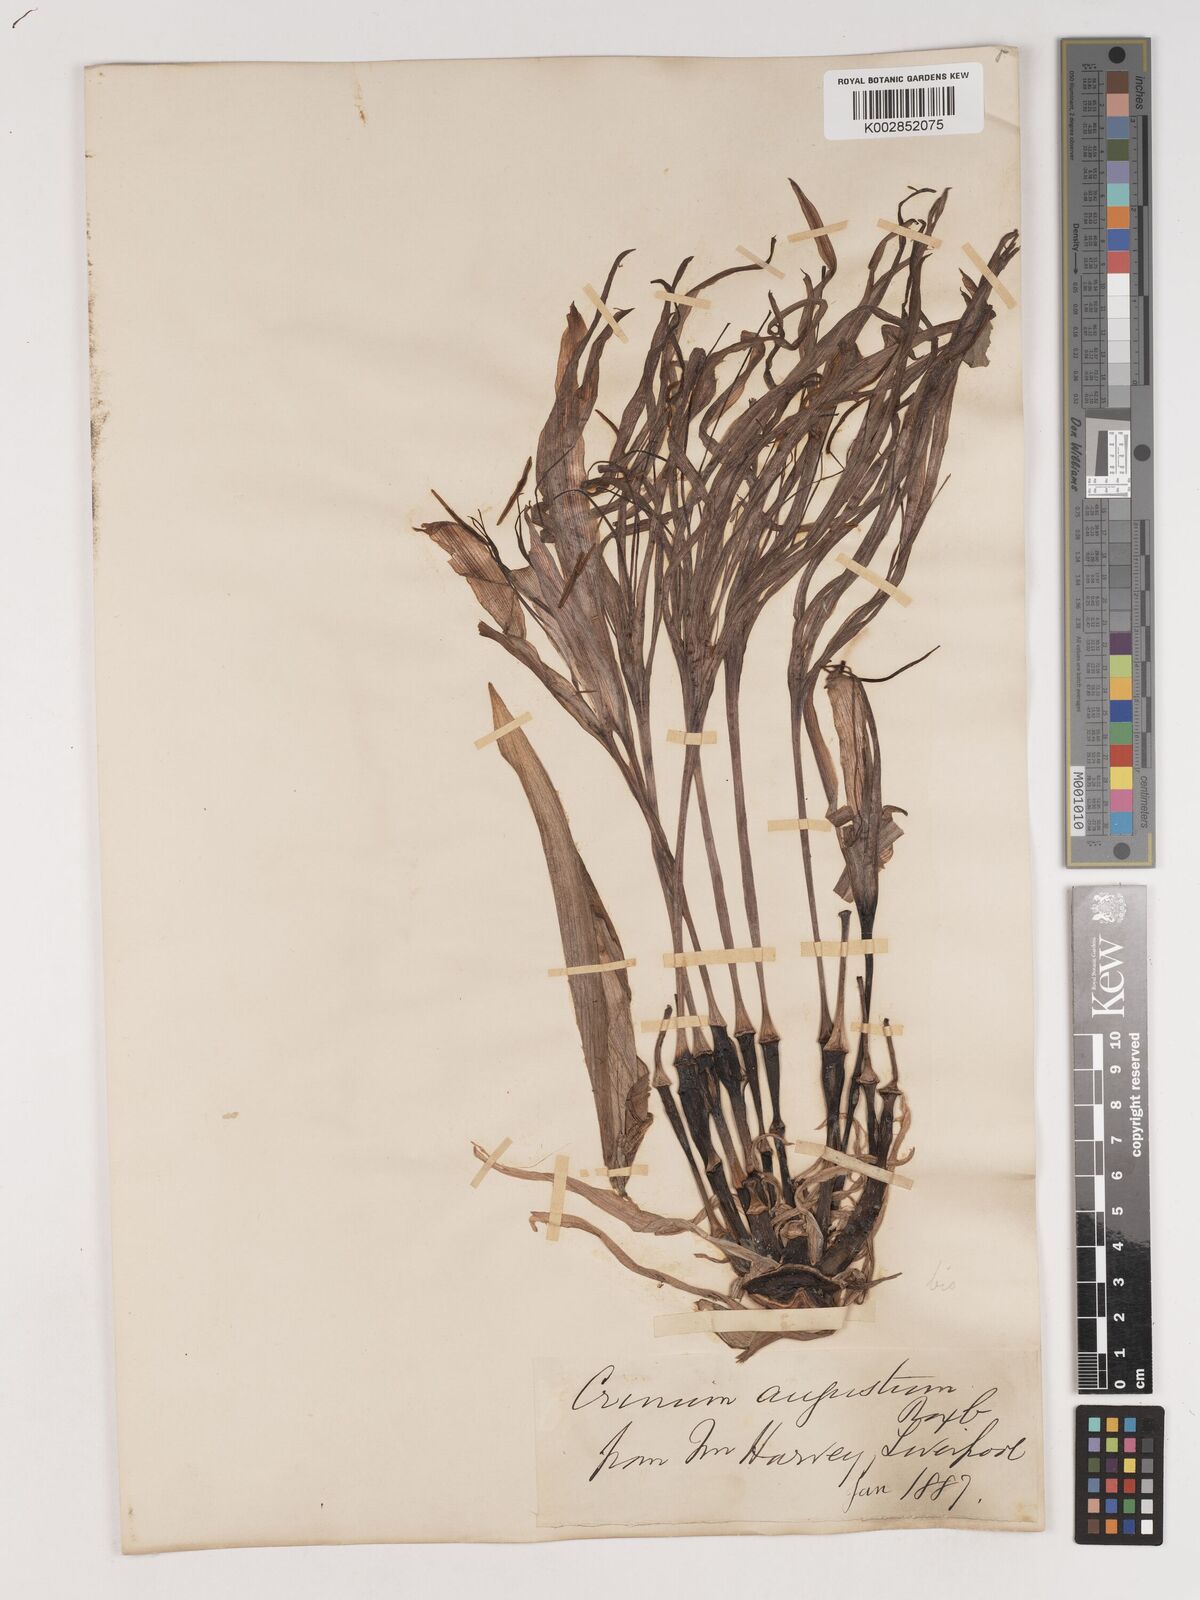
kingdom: Plantae
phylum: Tracheophyta
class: Liliopsida
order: Asparagales
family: Amaryllidaceae
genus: Crinum
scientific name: Crinum amabile
